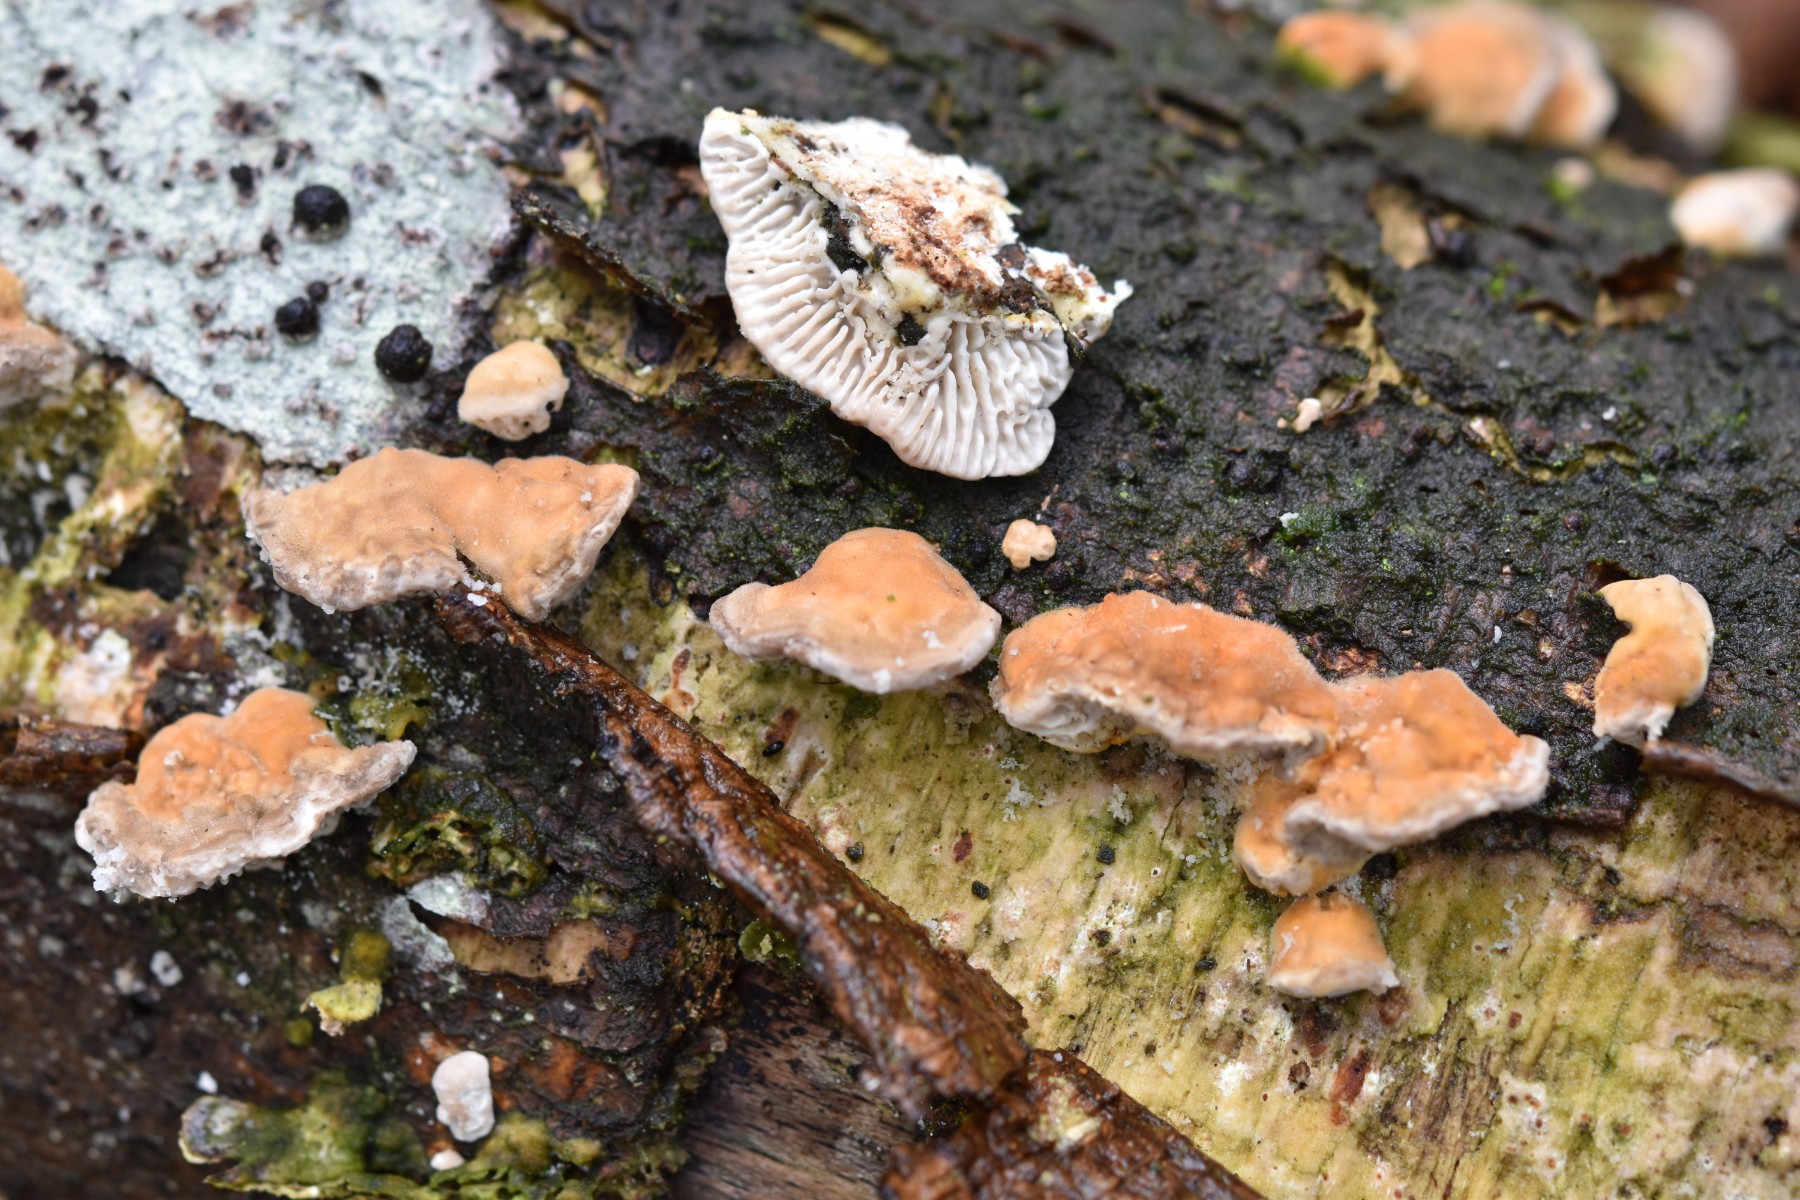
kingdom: Fungi
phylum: Basidiomycota
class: Agaricomycetes
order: Polyporales
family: Polyporaceae
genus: Lenzites
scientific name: Lenzites betulinus
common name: birke-læderporesvamp
